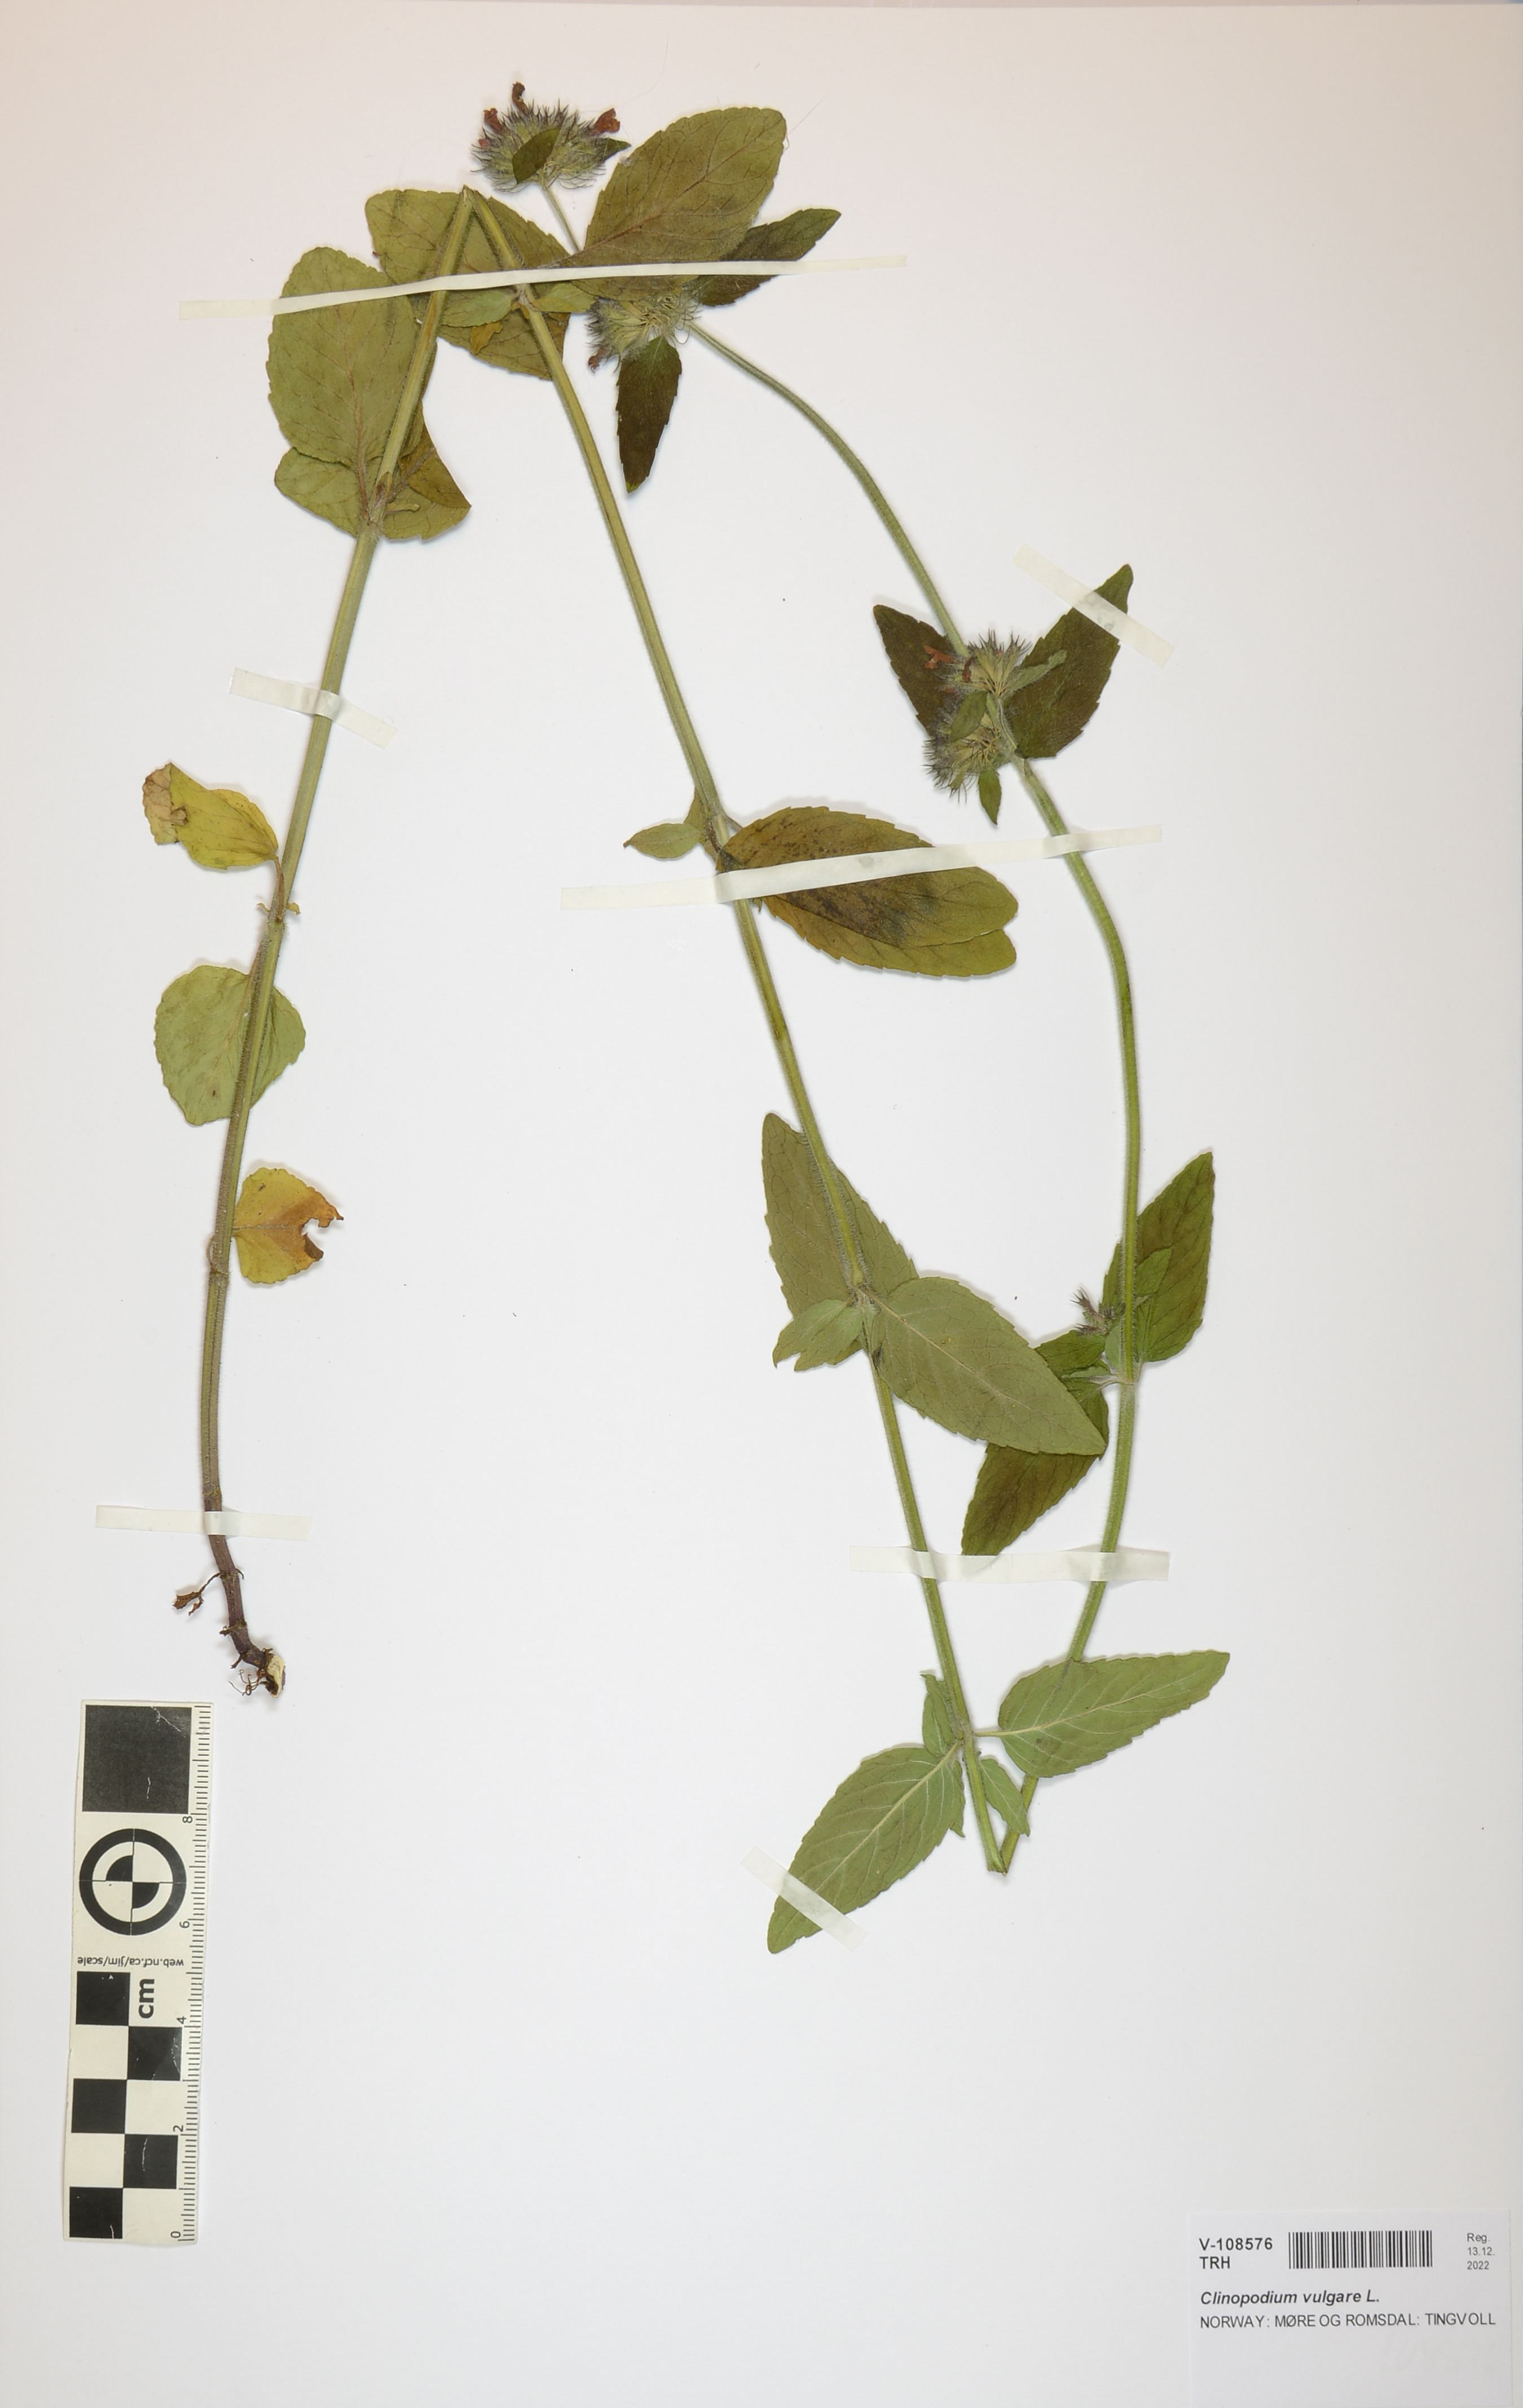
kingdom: Plantae
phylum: Tracheophyta
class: Magnoliopsida
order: Lamiales
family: Lamiaceae
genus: Clinopodium
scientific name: Clinopodium vulgare
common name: Wild basil
